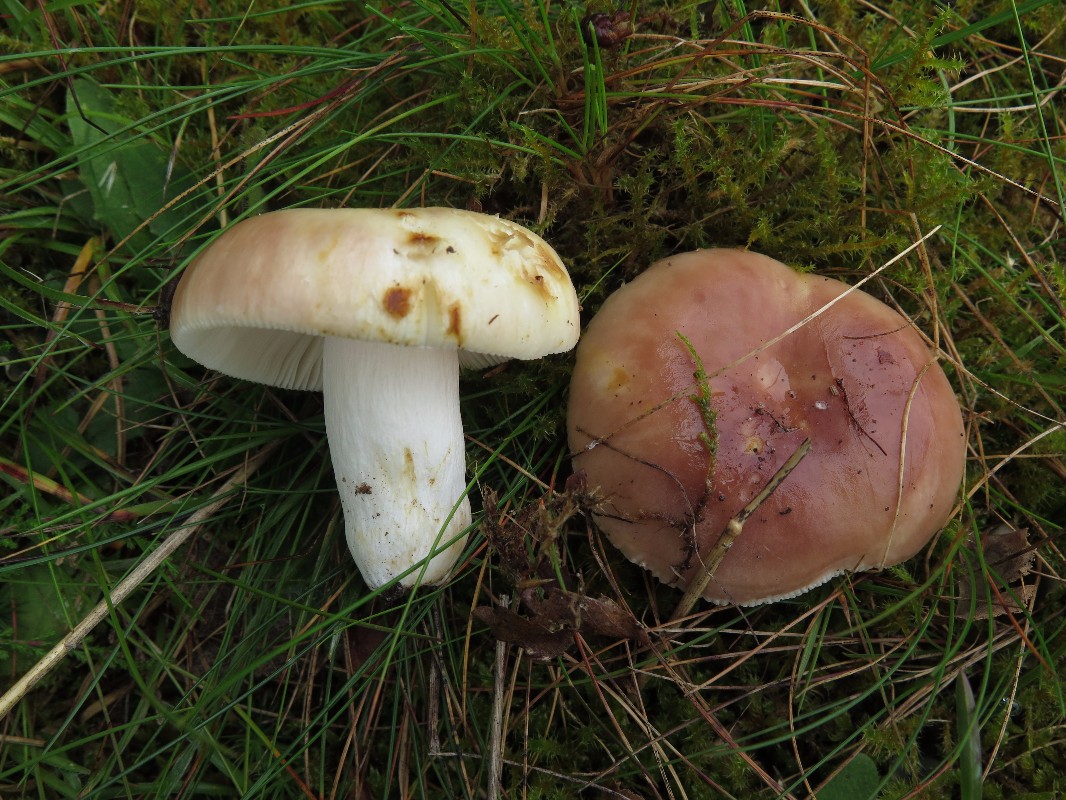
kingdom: Fungi
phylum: Basidiomycota
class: Agaricomycetes
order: Russulales
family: Russulaceae
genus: Russula
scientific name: Russula vesca
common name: spiselig skørhat
